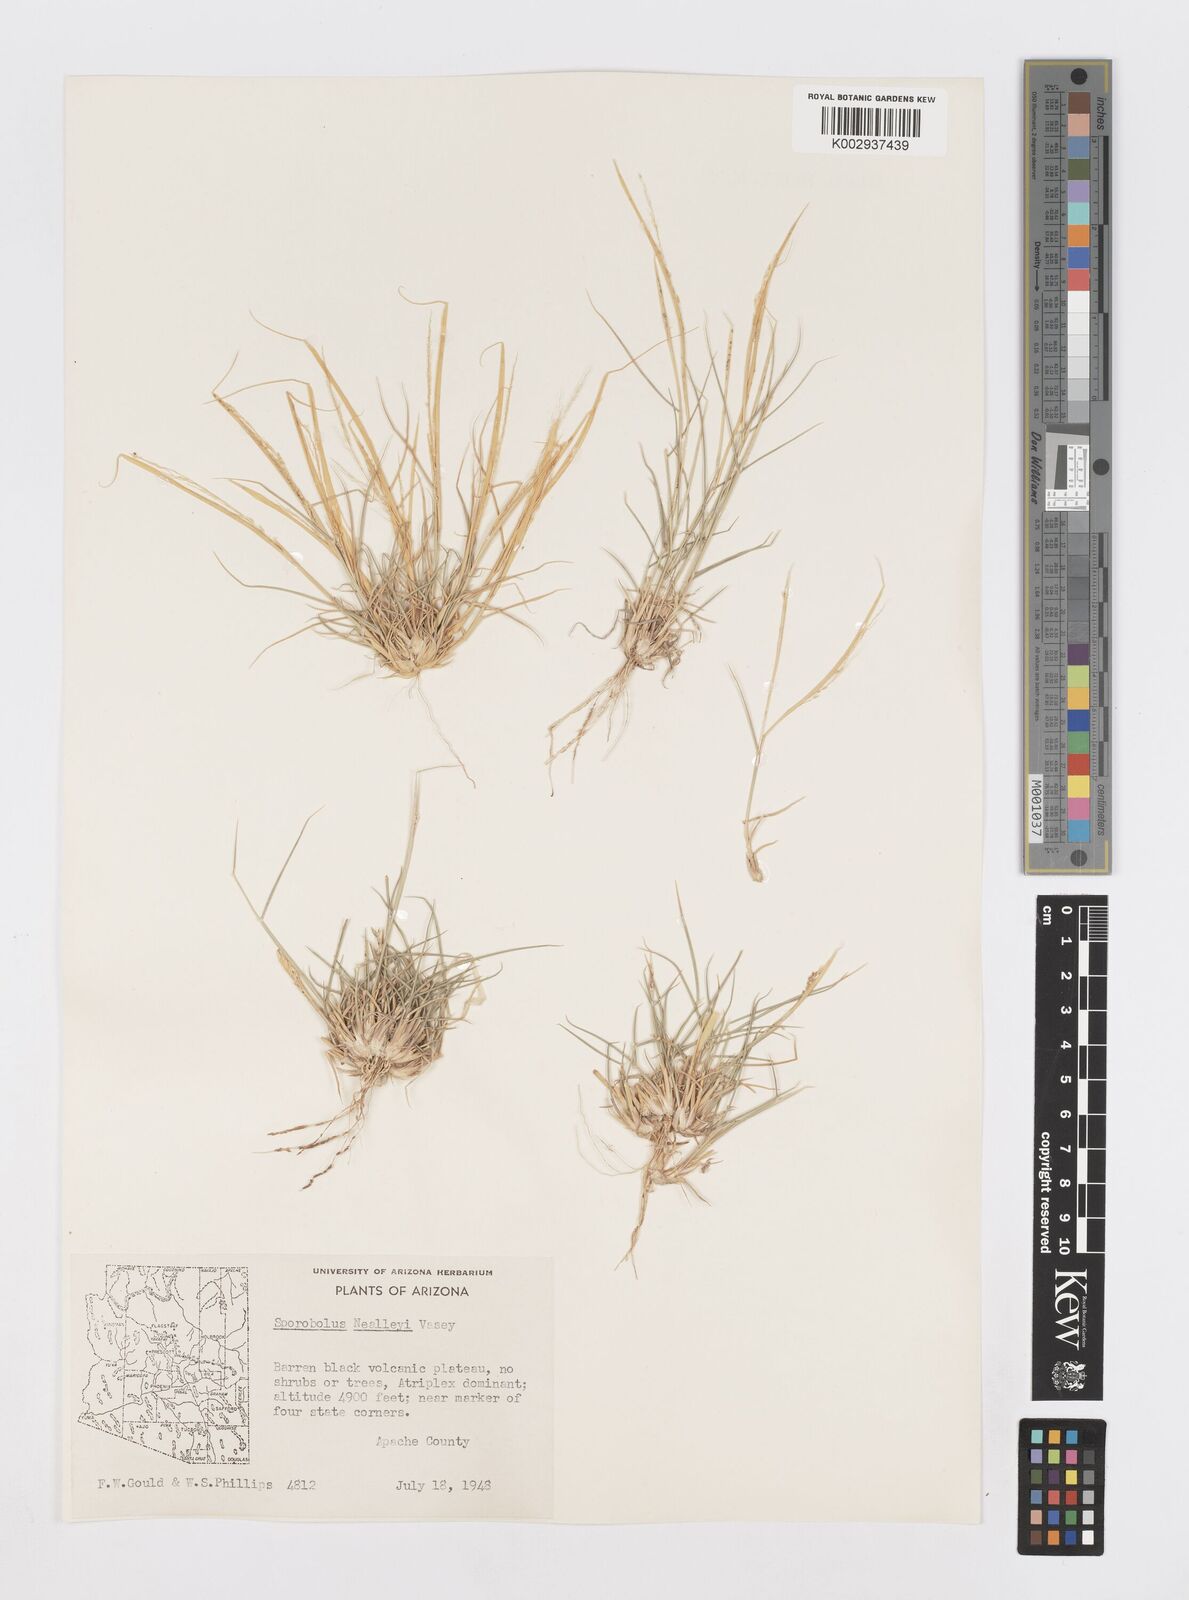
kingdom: Plantae
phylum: Tracheophyta
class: Liliopsida
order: Poales
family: Poaceae
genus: Sporobolus
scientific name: Sporobolus nealleyi
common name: Gyp grass
